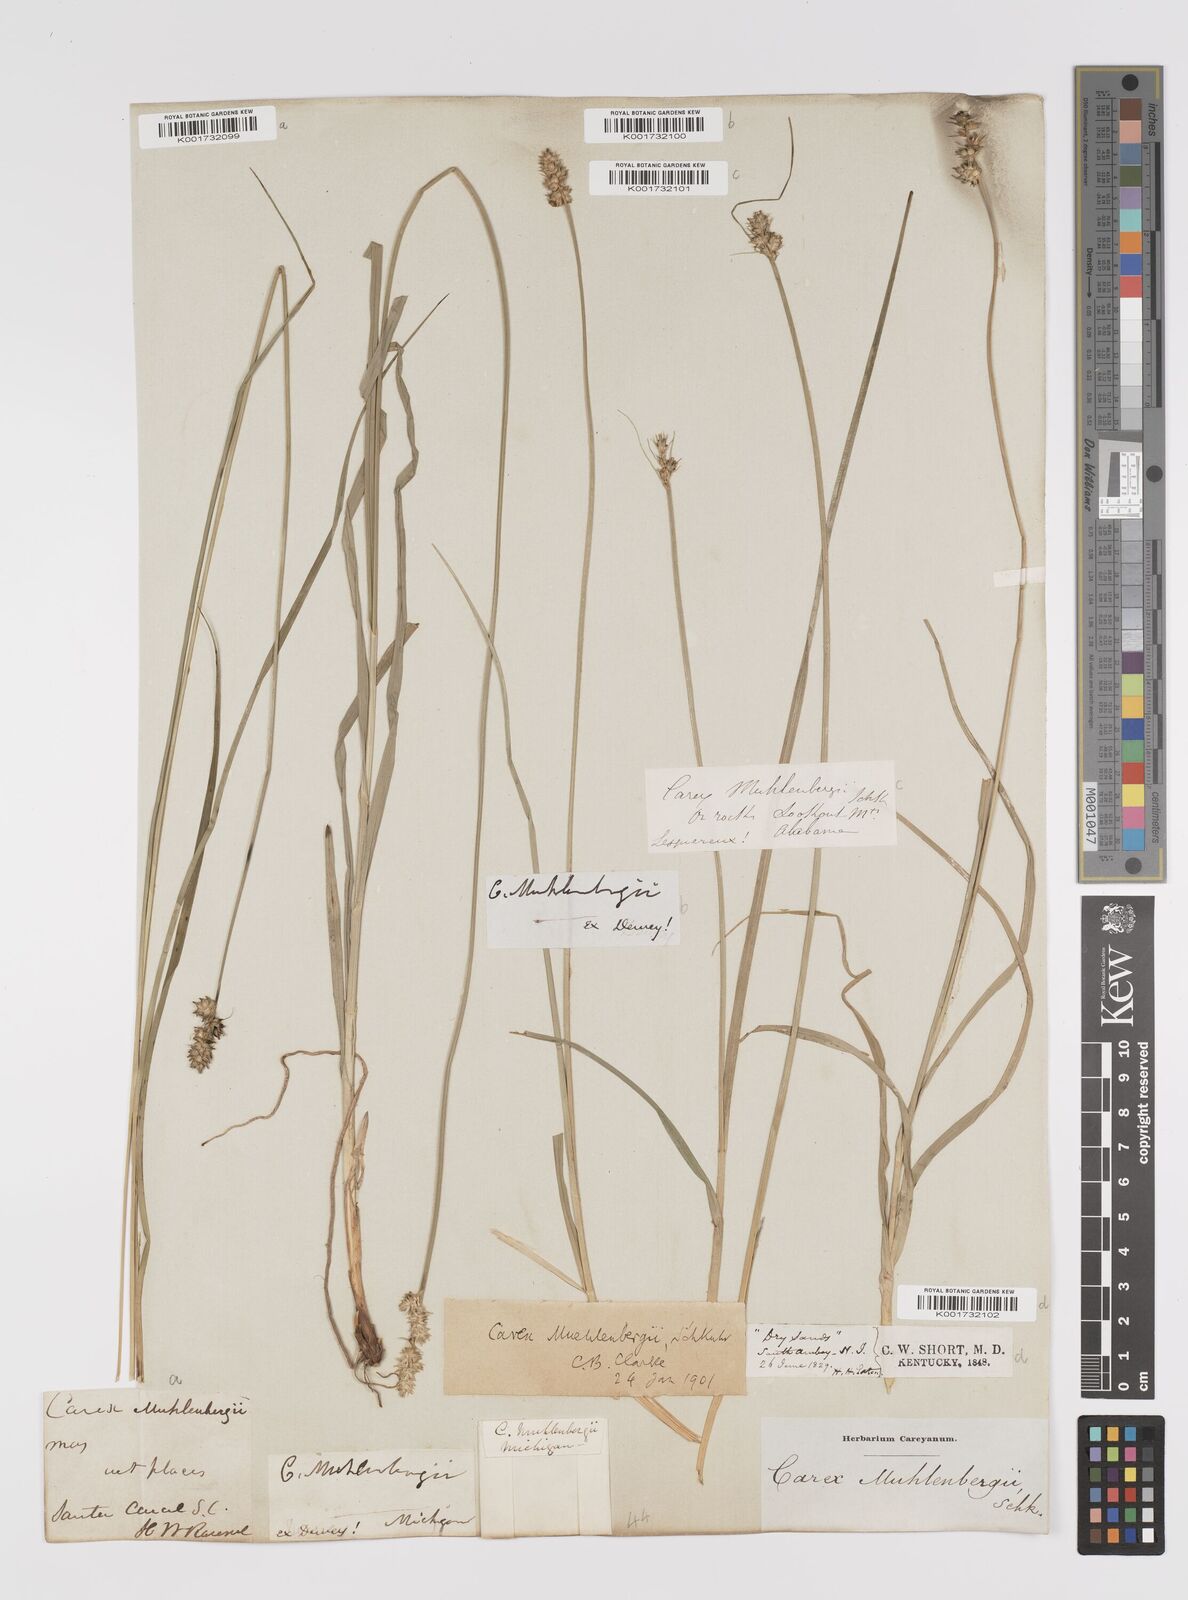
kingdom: Plantae
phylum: Tracheophyta
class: Liliopsida
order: Poales
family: Cyperaceae
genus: Carex
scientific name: Carex vulpinoidea
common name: American fox-sedge
